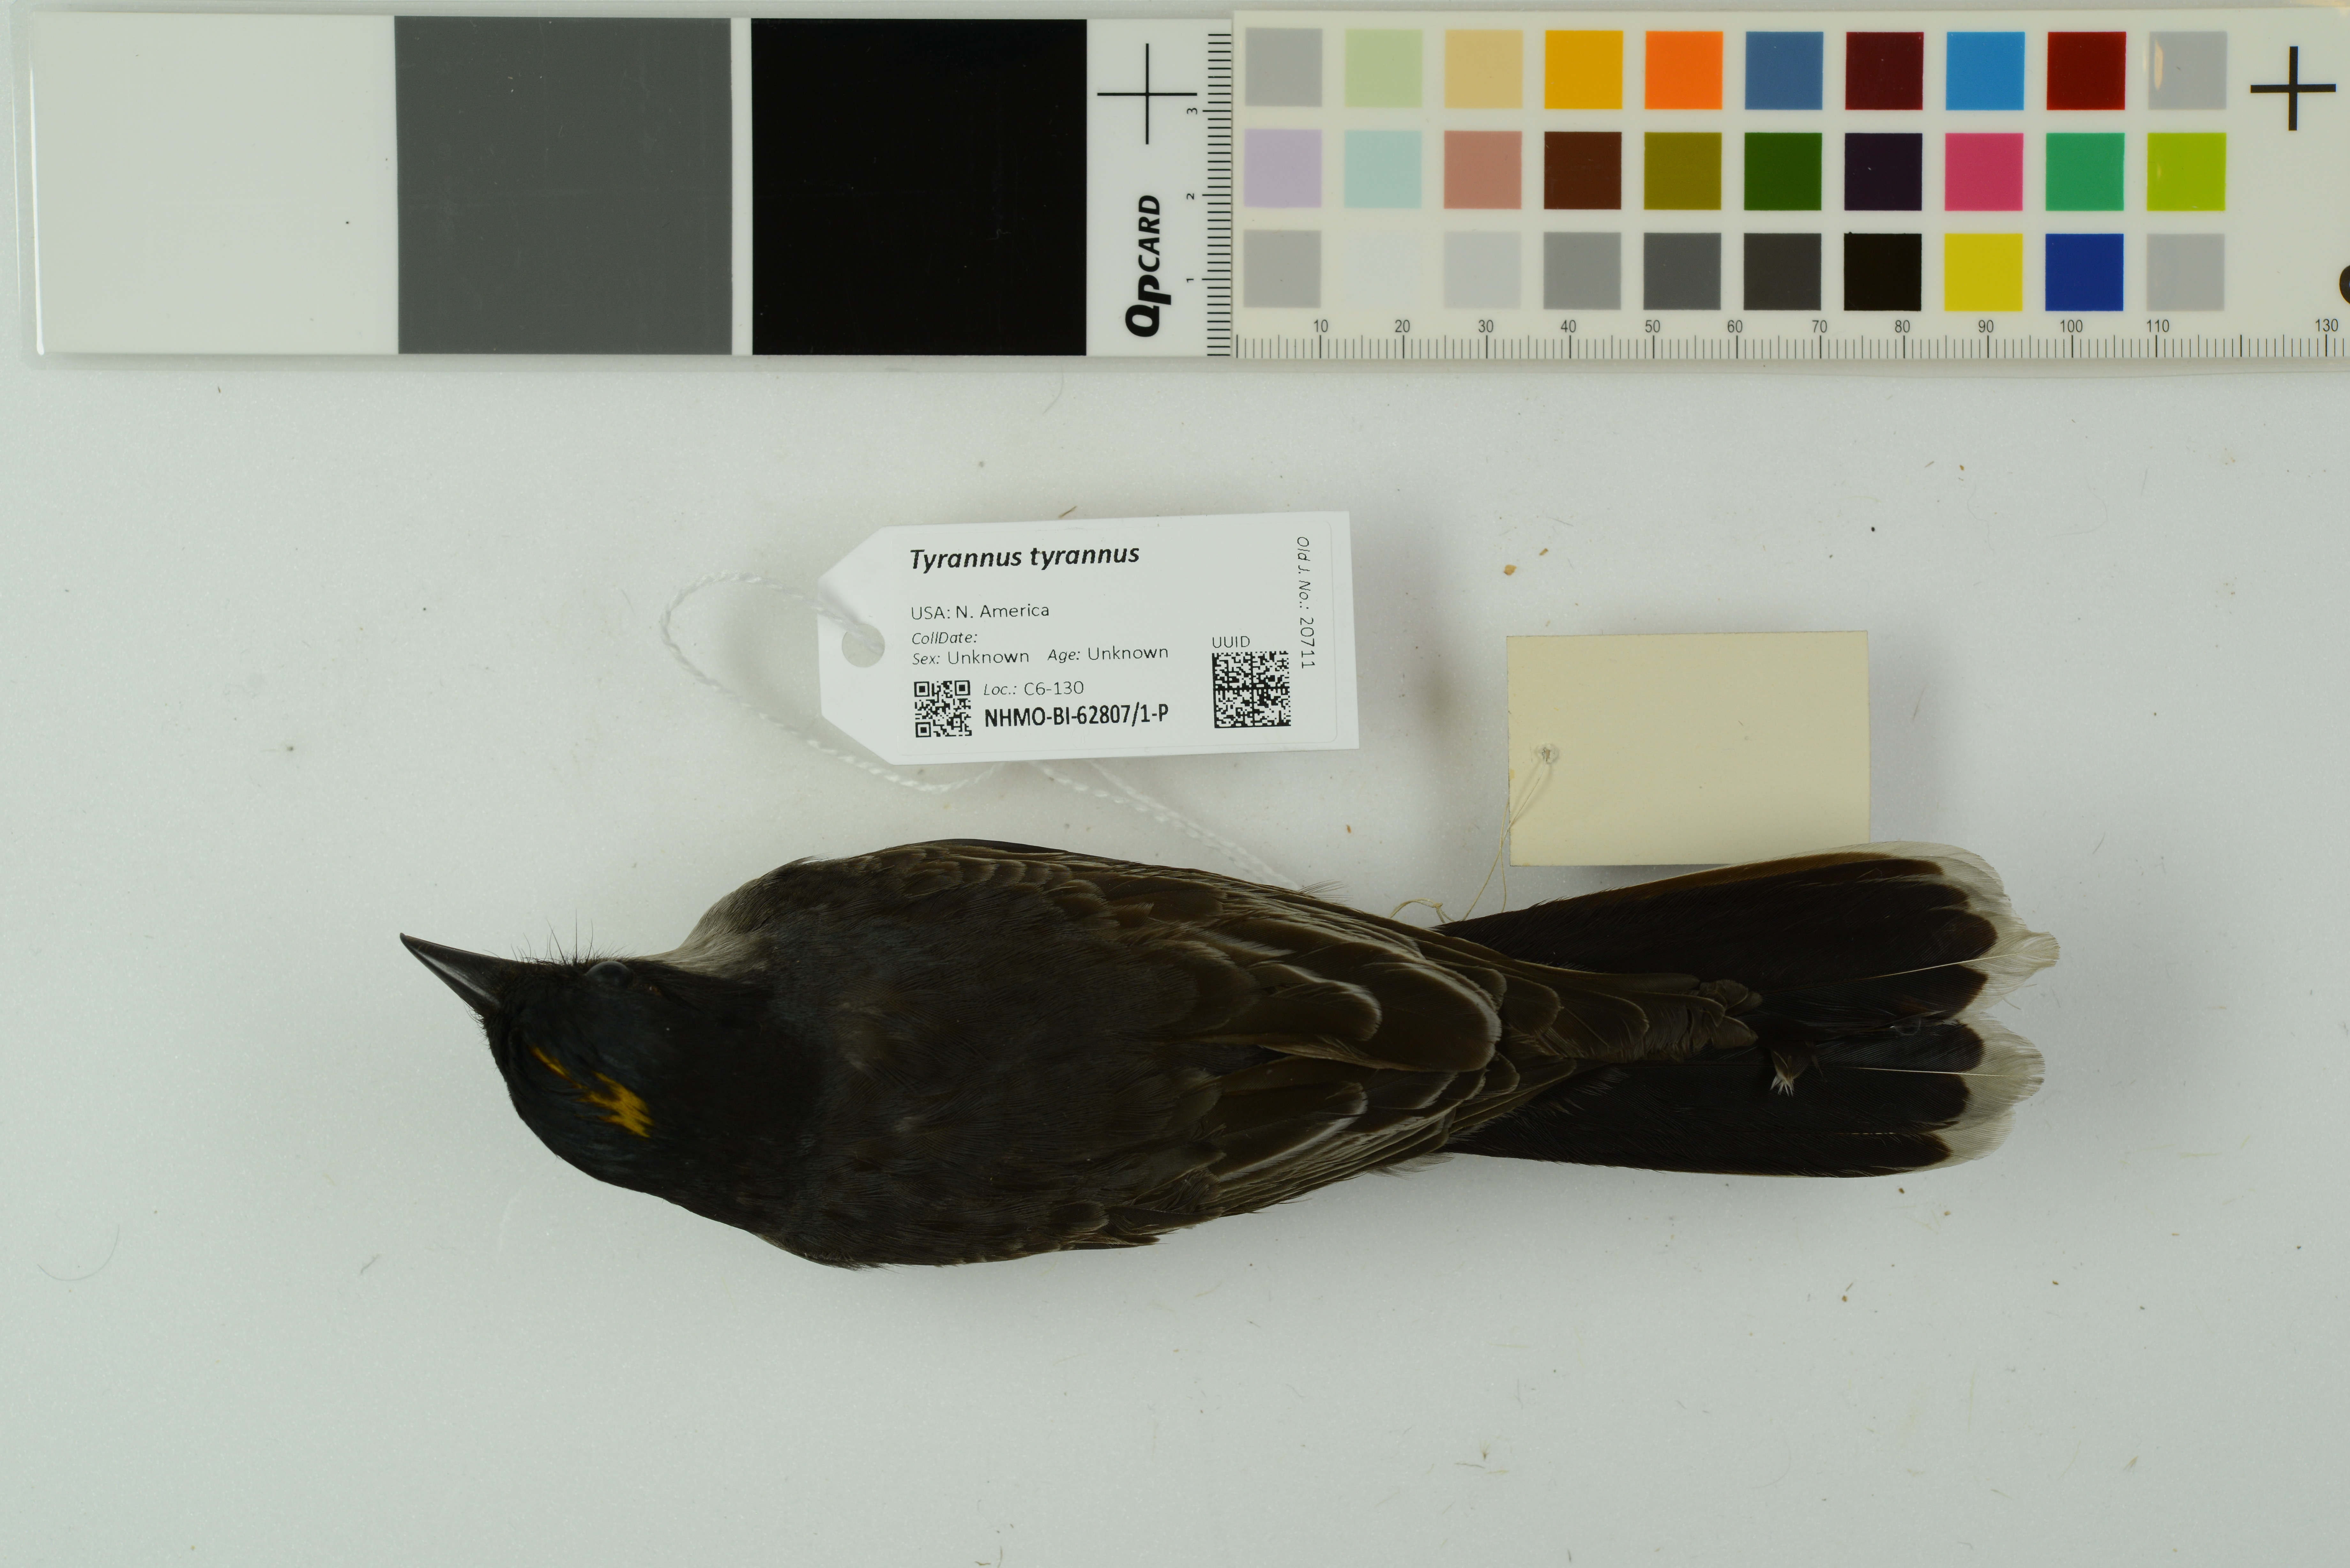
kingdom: Animalia
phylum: Chordata
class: Aves
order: Passeriformes
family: Tyrannidae
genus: Tyrannus
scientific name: Tyrannus tyrannus
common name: Eastern kingbird
